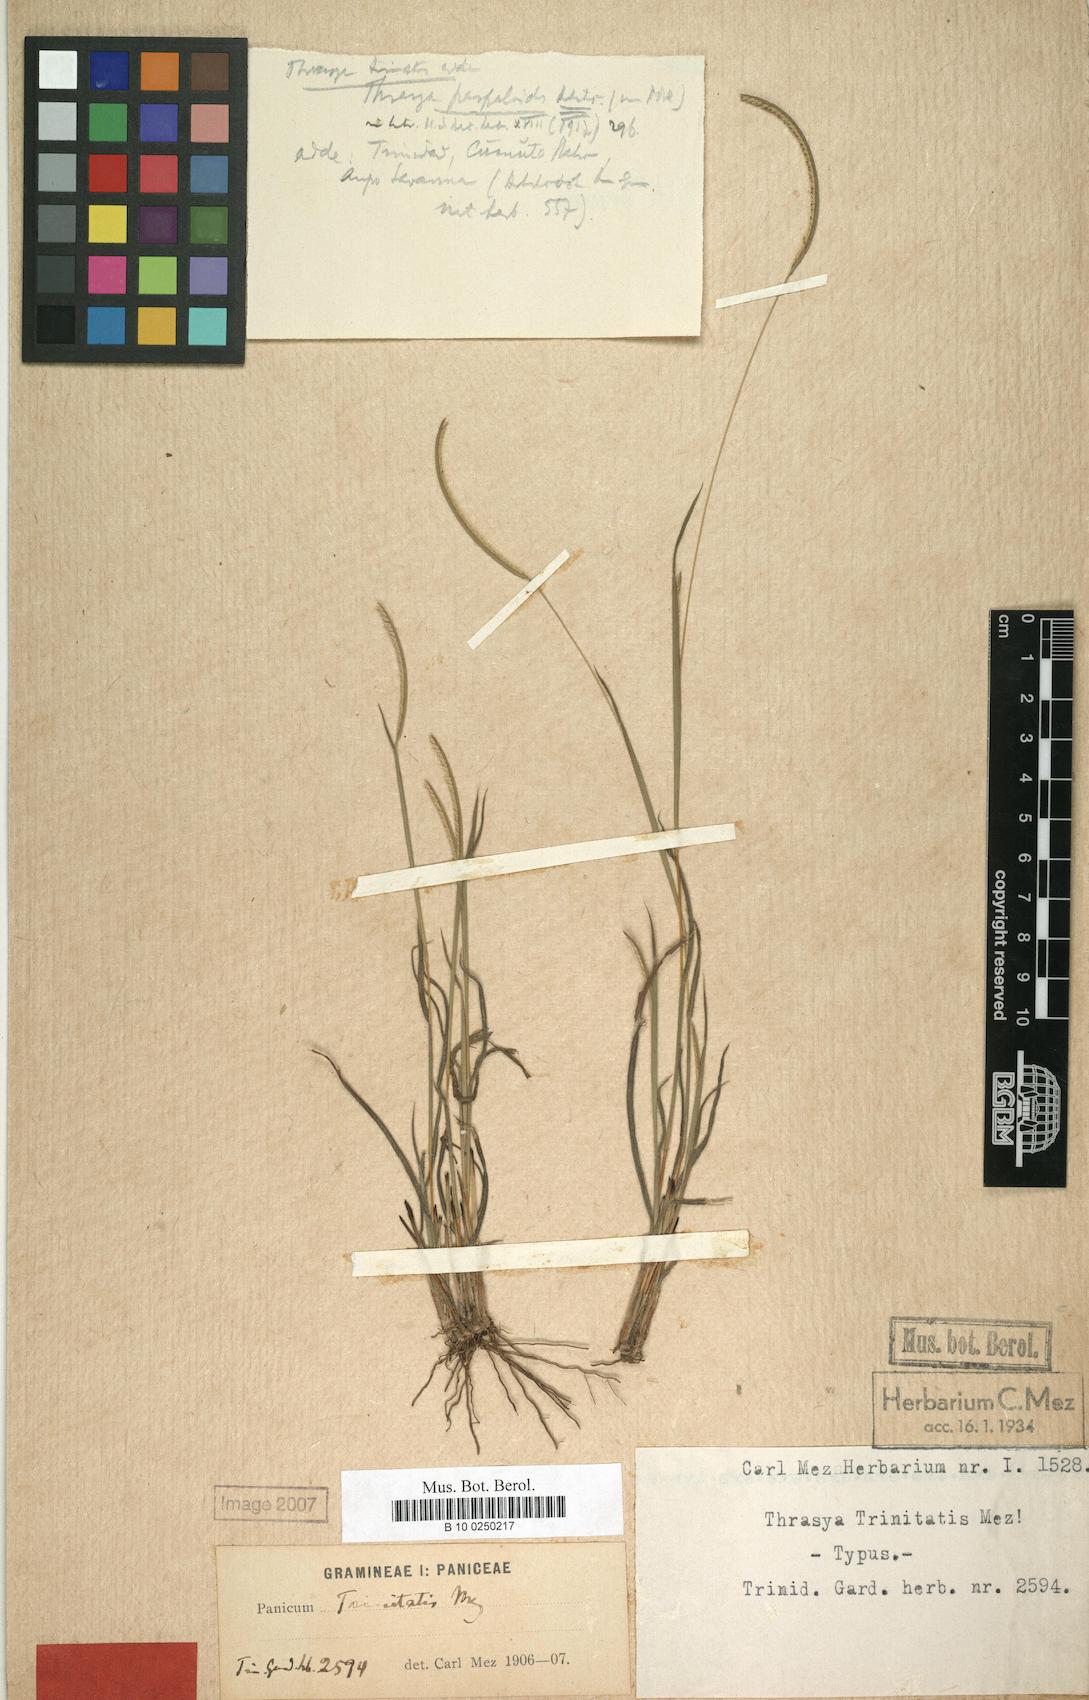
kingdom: Plantae
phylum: Tracheophyta
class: Liliopsida
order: Poales
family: Poaceae
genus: Paspalum
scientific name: Paspalum trinitense
